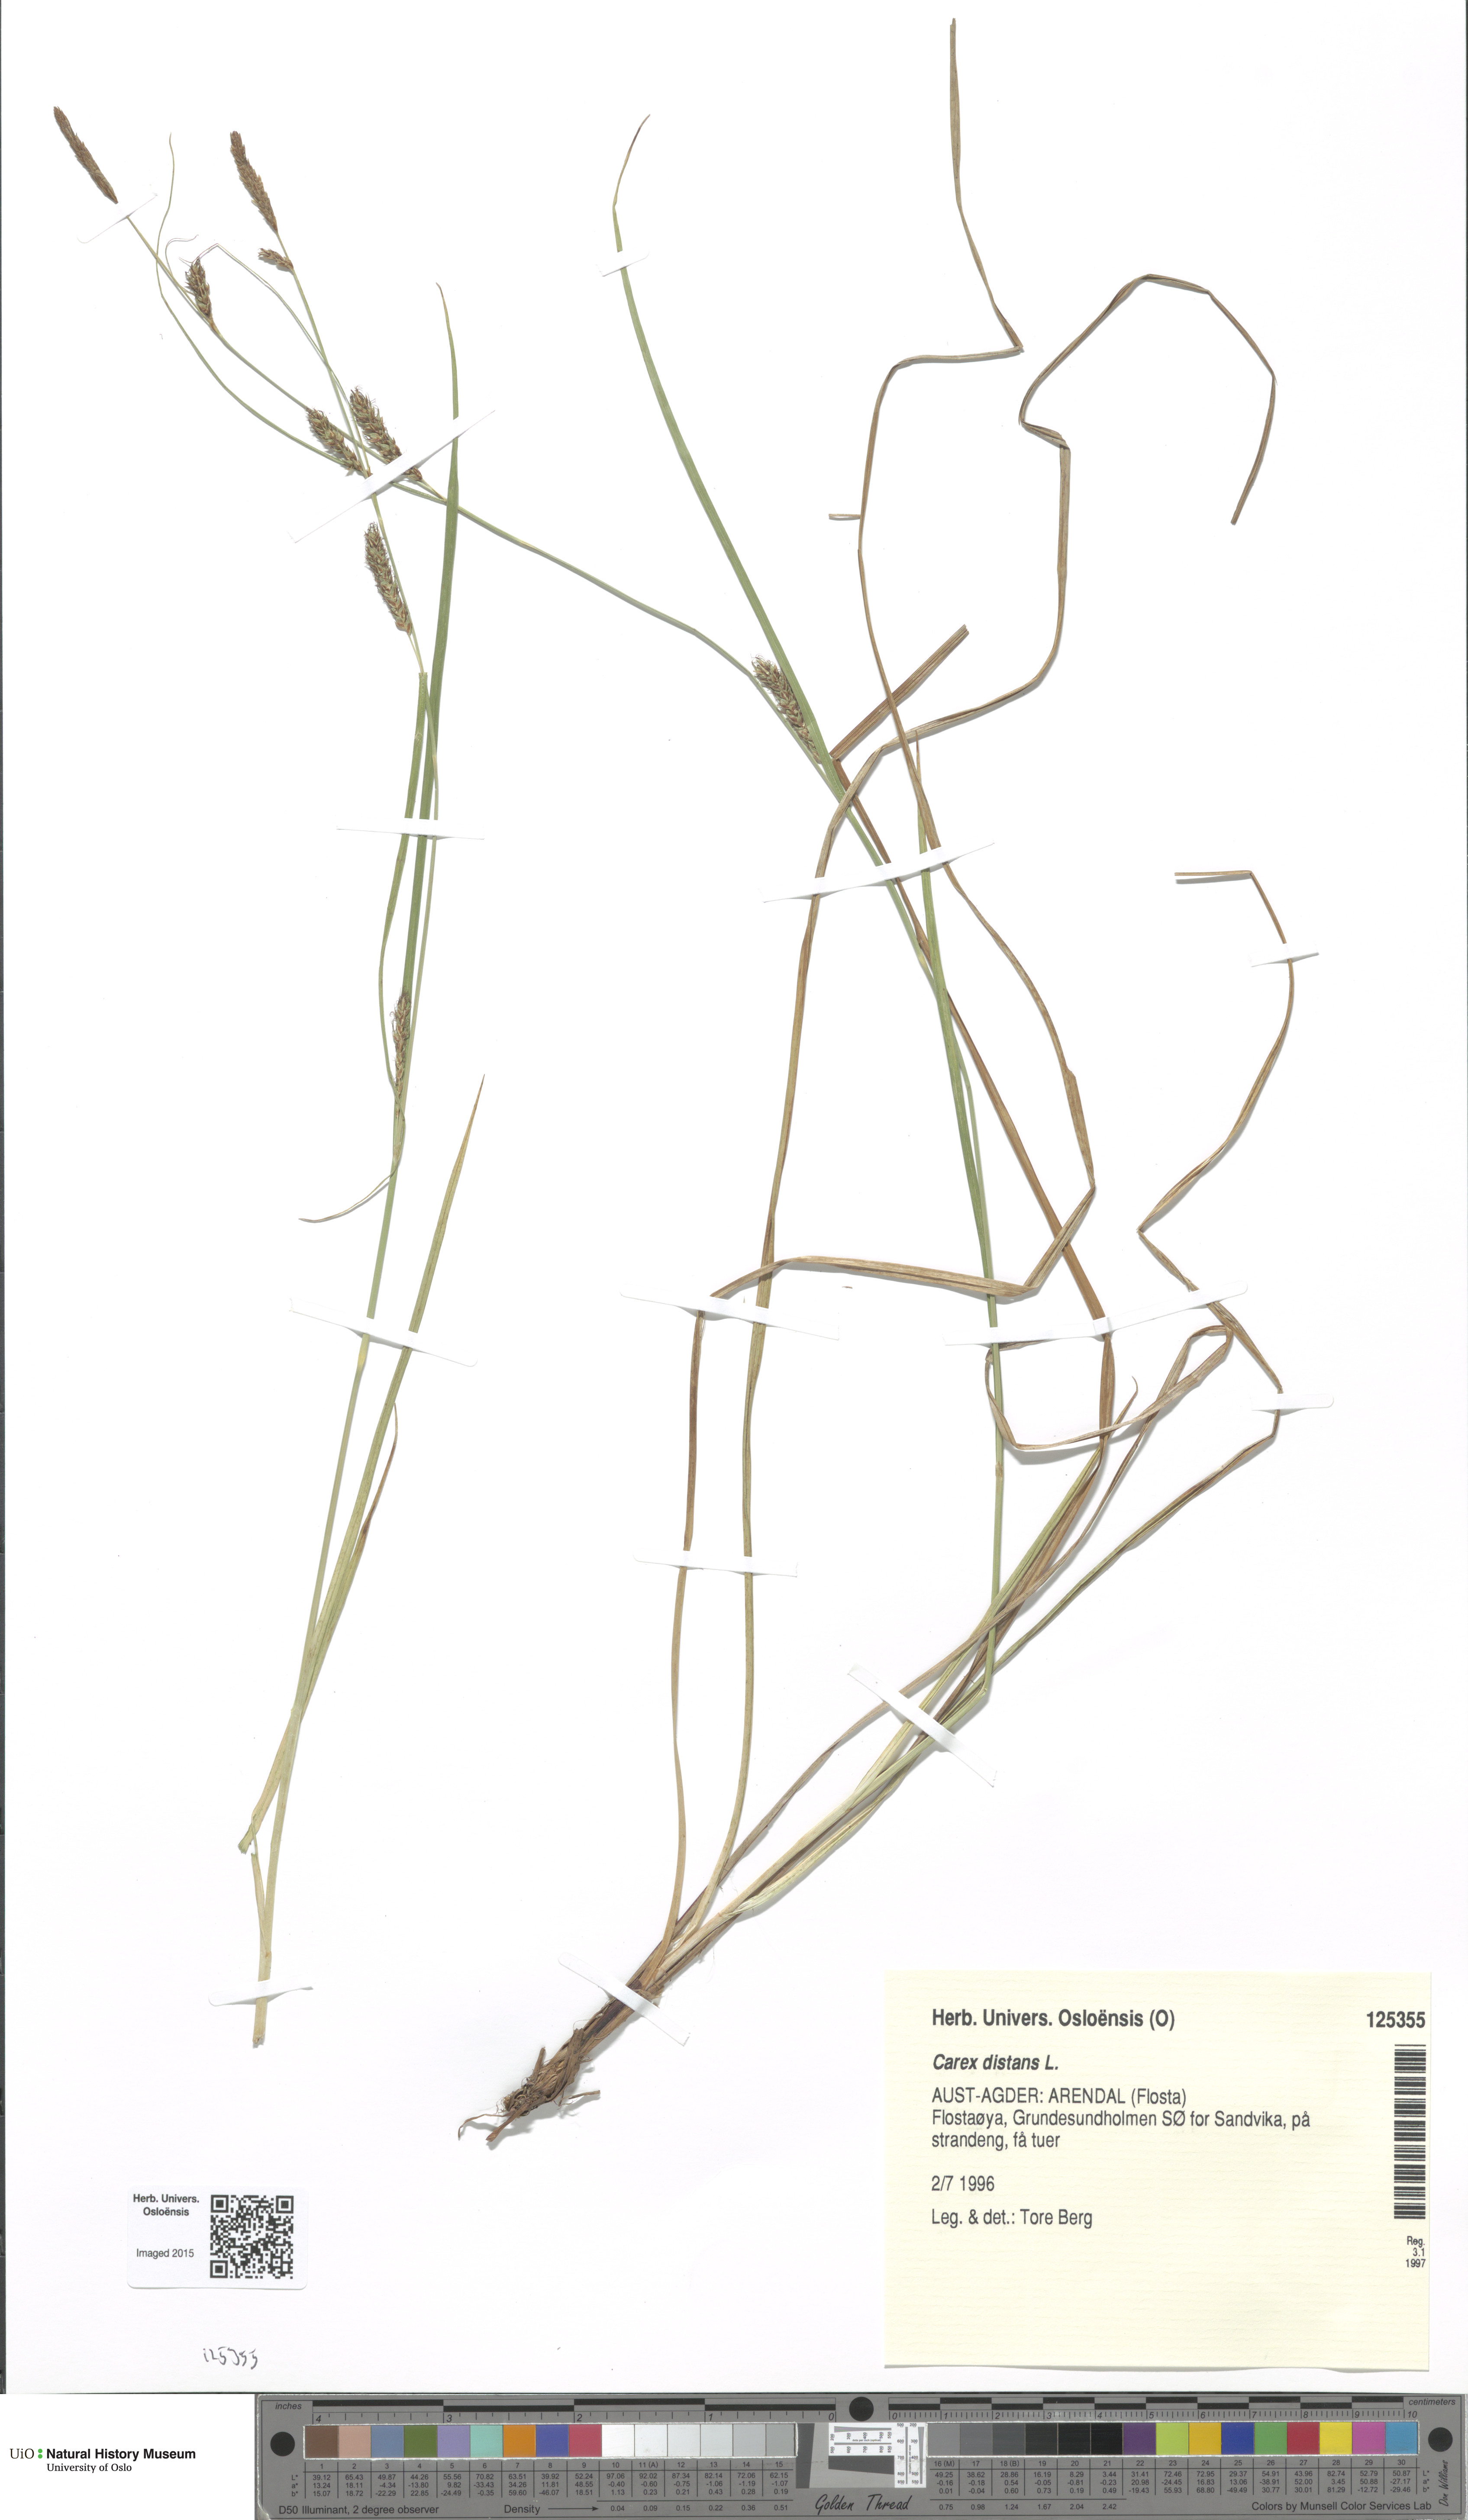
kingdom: Plantae
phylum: Tracheophyta
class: Liliopsida
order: Poales
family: Cyperaceae
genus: Carex
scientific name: Carex distans
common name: Distant sedge
